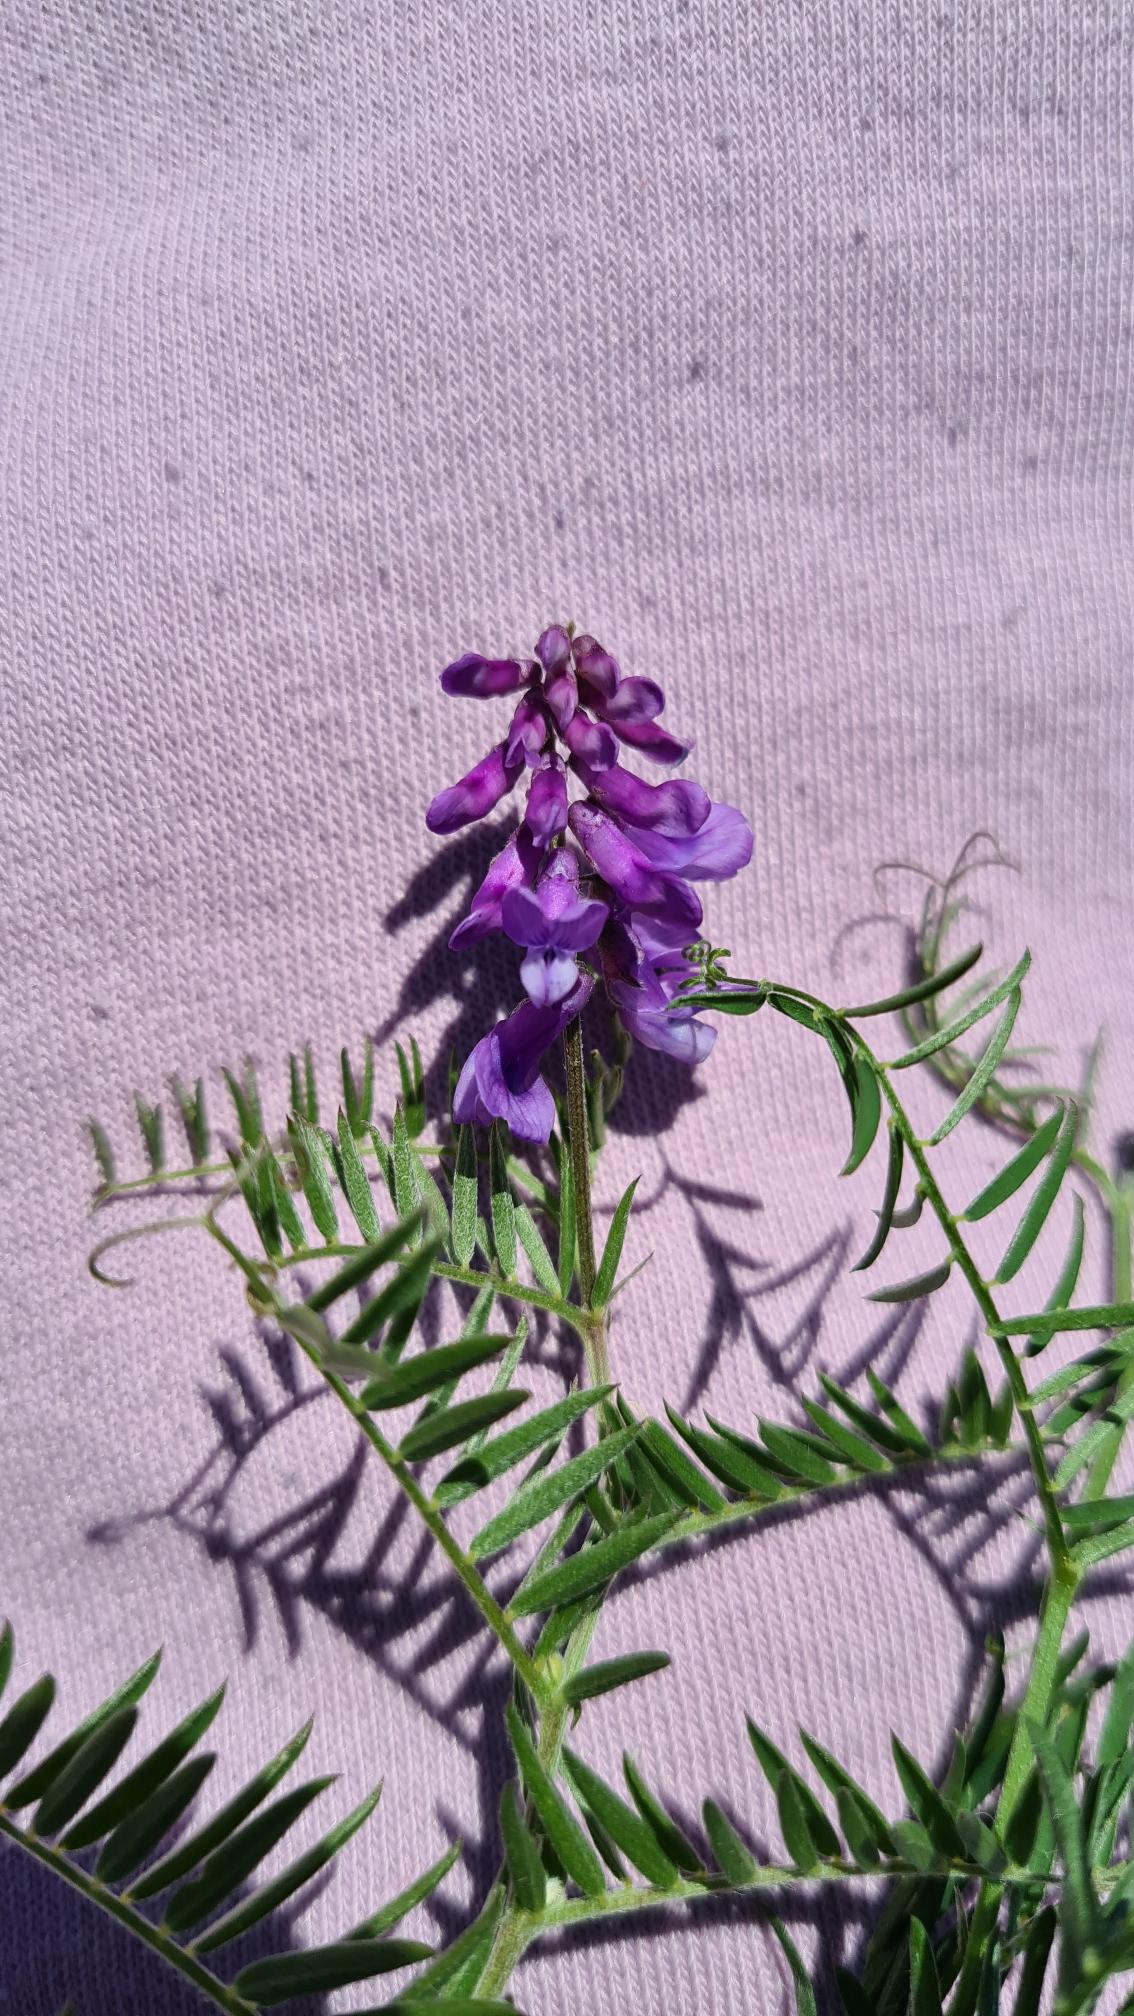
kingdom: Plantae
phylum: Tracheophyta
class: Magnoliopsida
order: Fabales
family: Fabaceae
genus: Vicia
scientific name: Vicia cracca
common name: Muse-vikke
